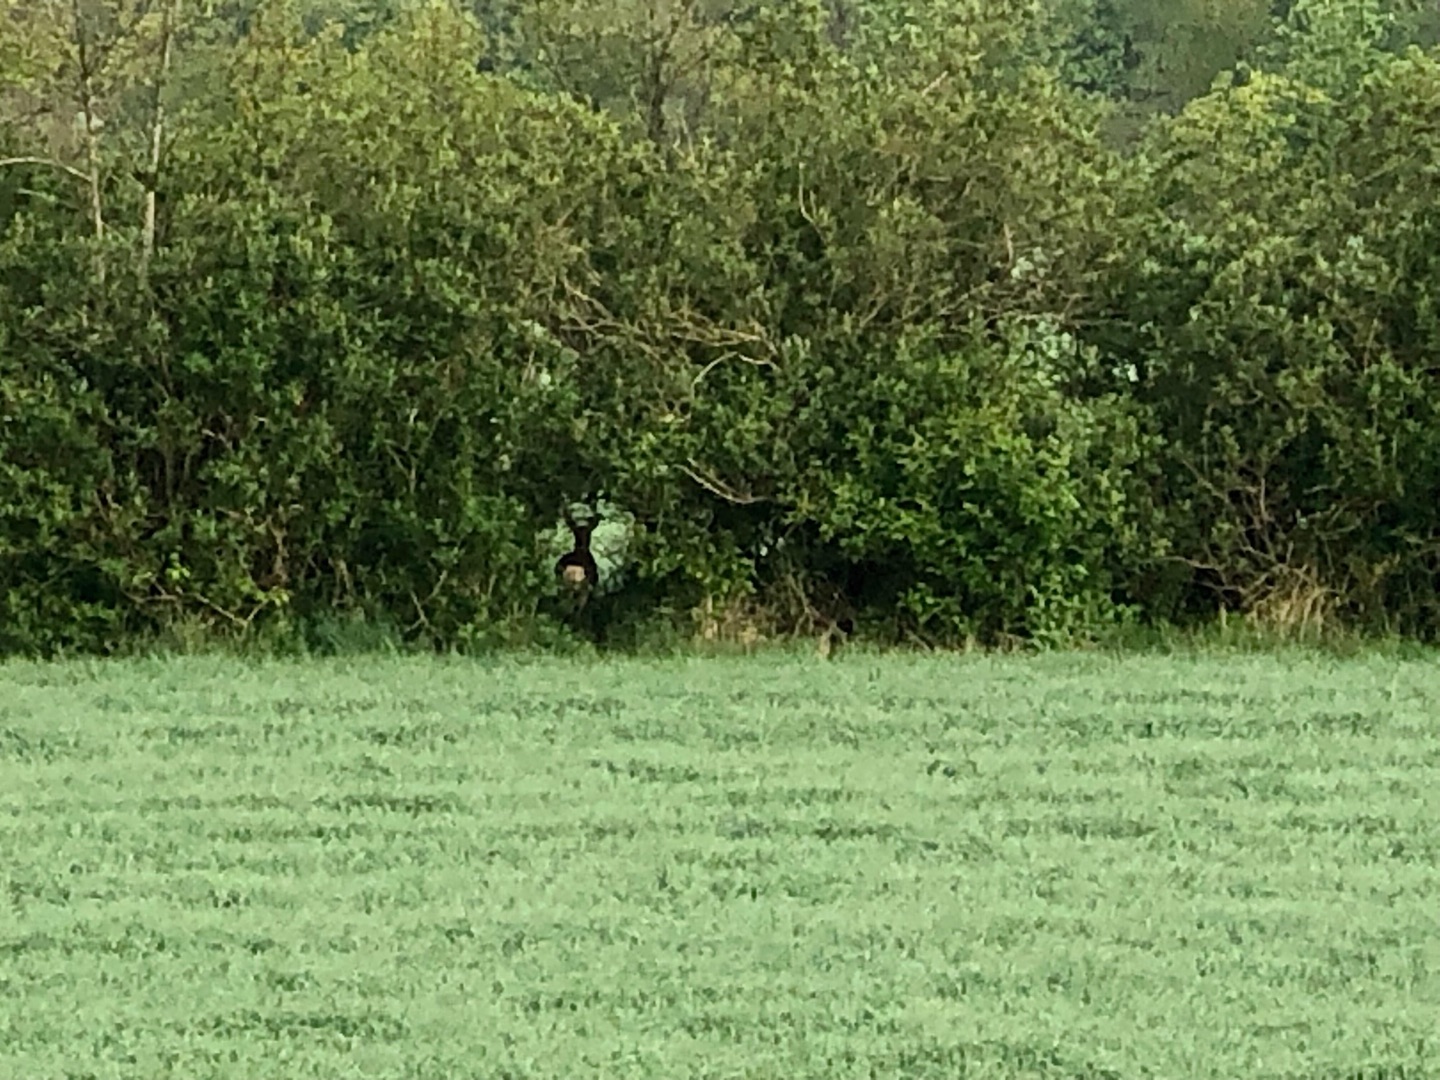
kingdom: Animalia
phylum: Chordata
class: Mammalia
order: Artiodactyla
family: Cervidae
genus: Capreolus
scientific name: Capreolus capreolus
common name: Rådyr
